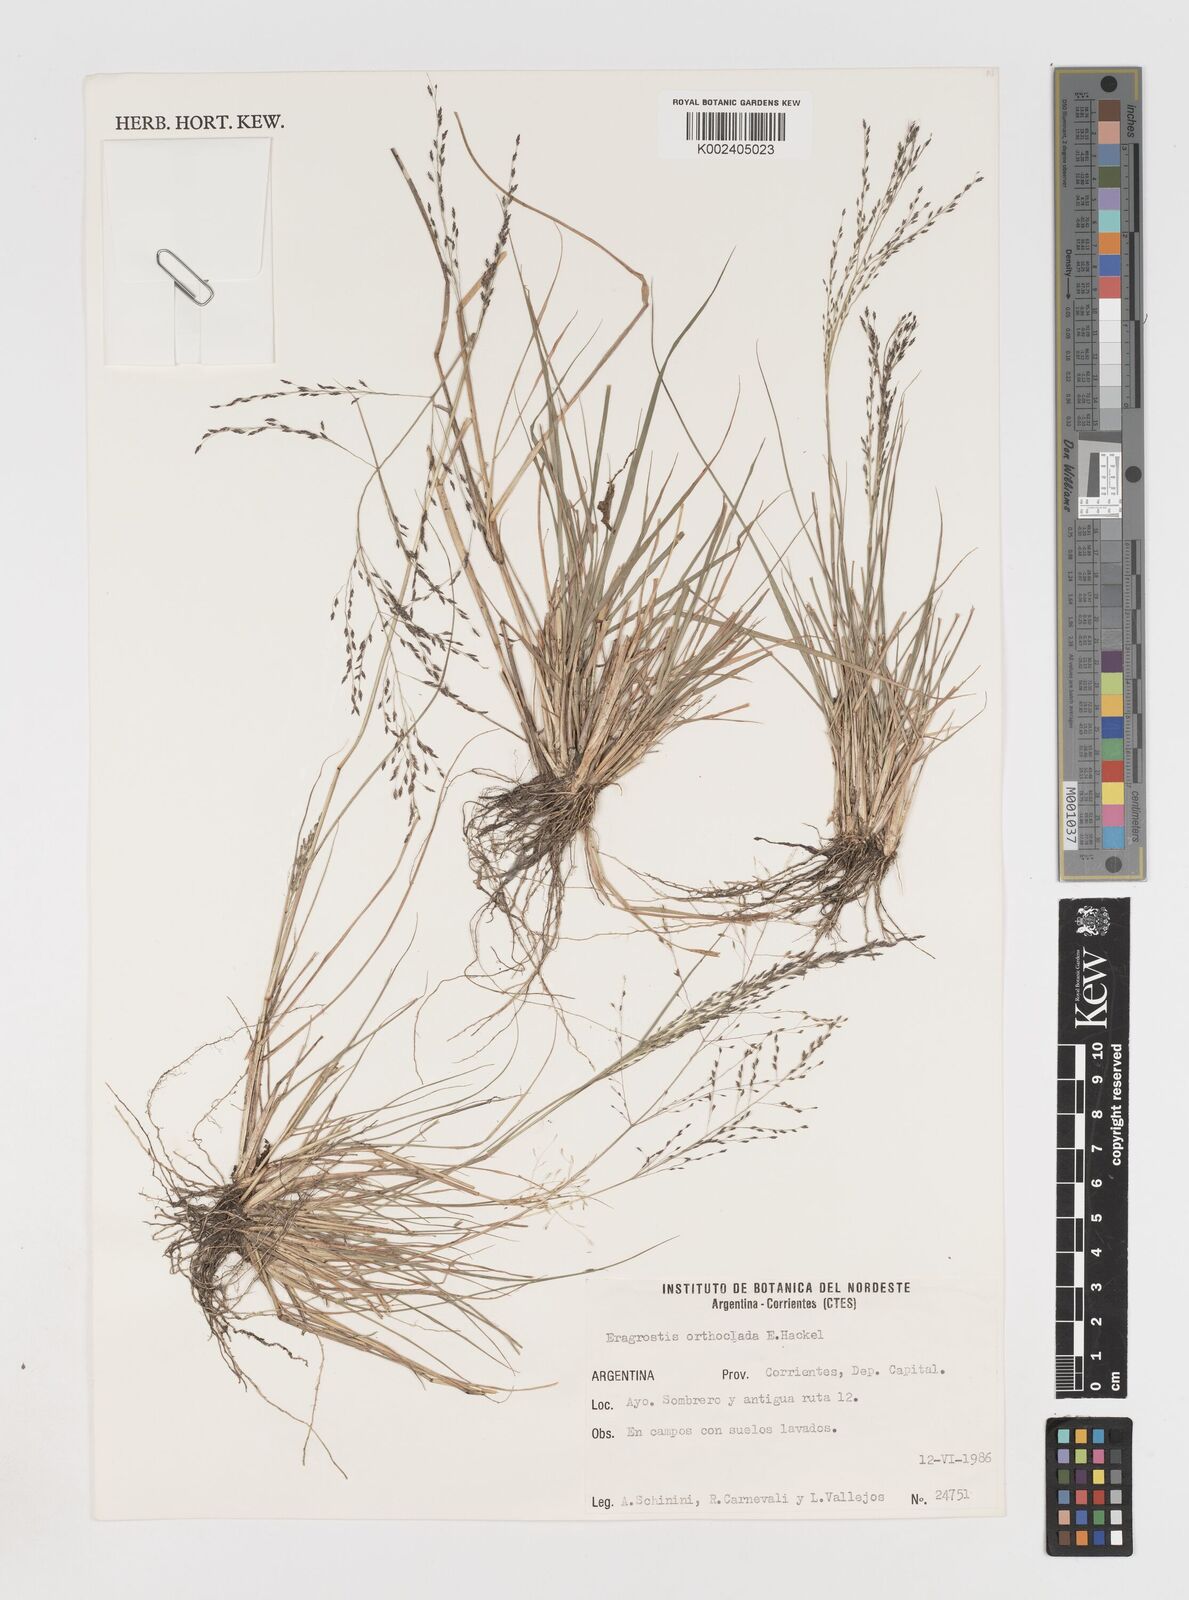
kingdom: Plantae
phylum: Tracheophyta
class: Liliopsida
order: Poales
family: Poaceae
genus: Eragrostis
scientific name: Eragrostis soratensis
